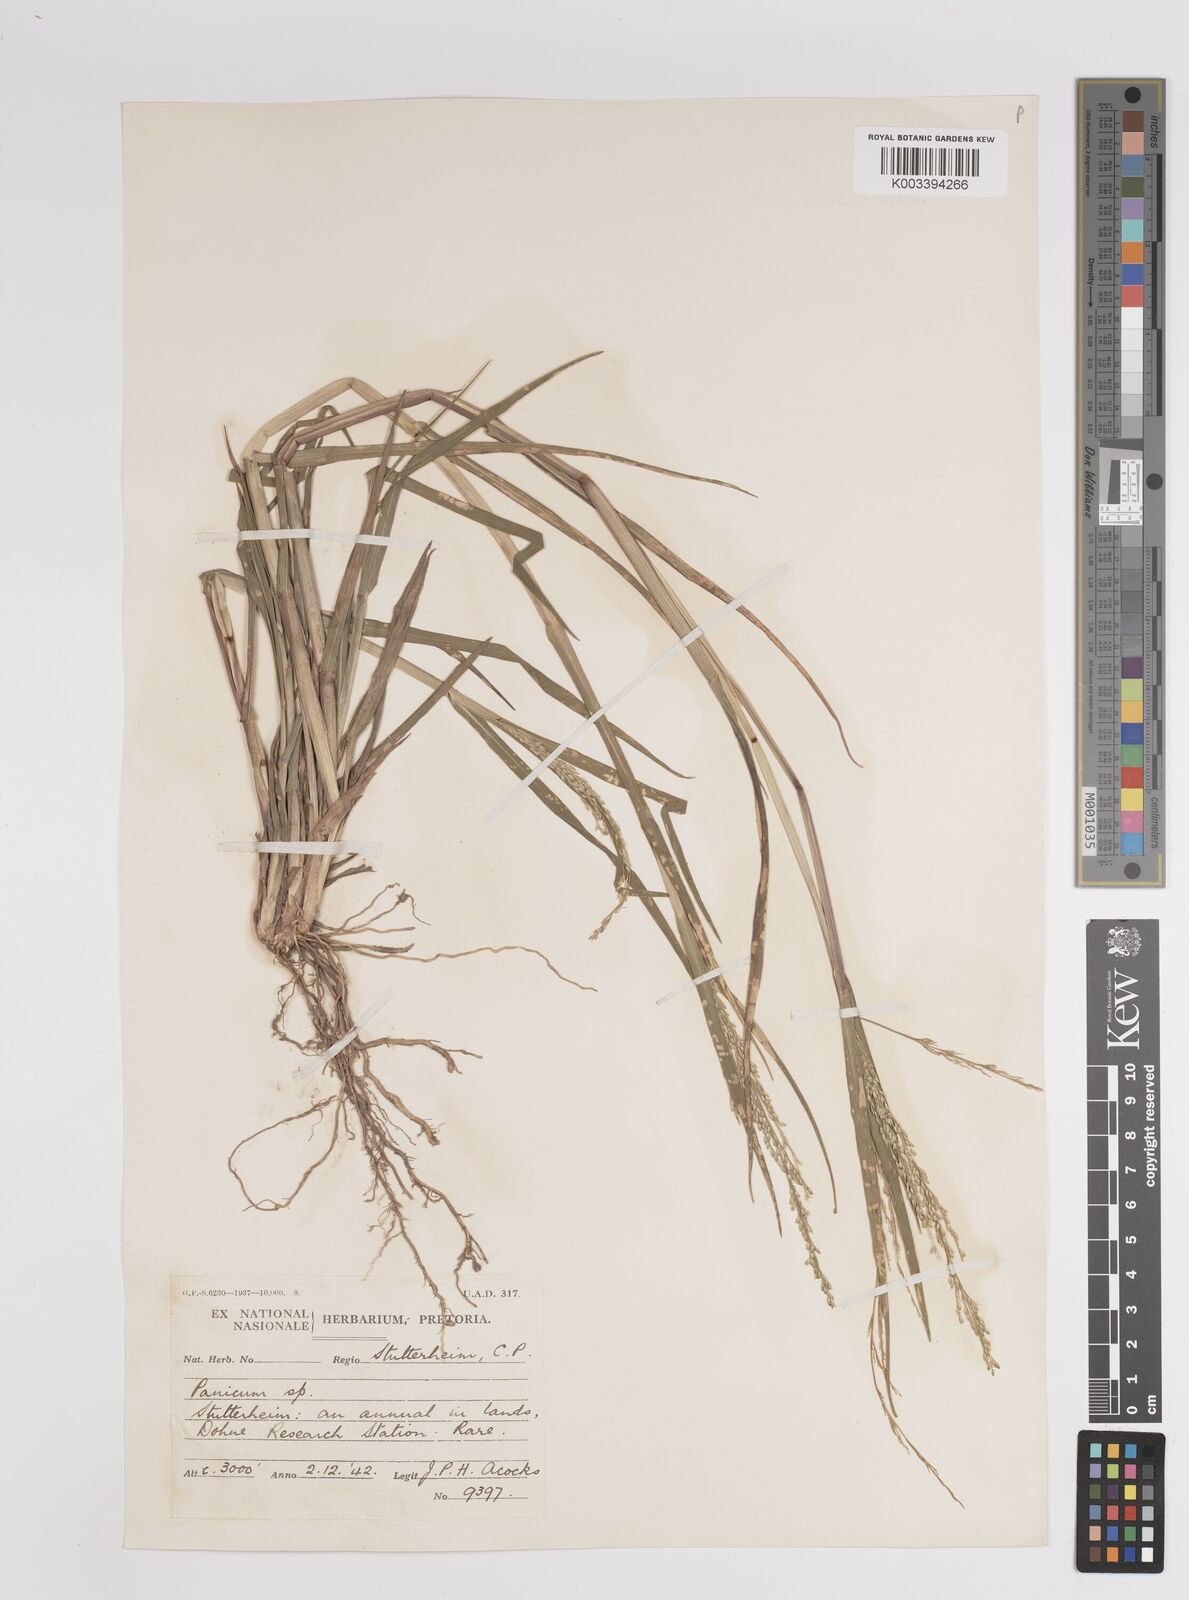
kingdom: Plantae
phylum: Tracheophyta
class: Liliopsida
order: Poales
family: Poaceae
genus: Panicum
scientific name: Panicum subalbidum
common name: Elbow buffalo grass
